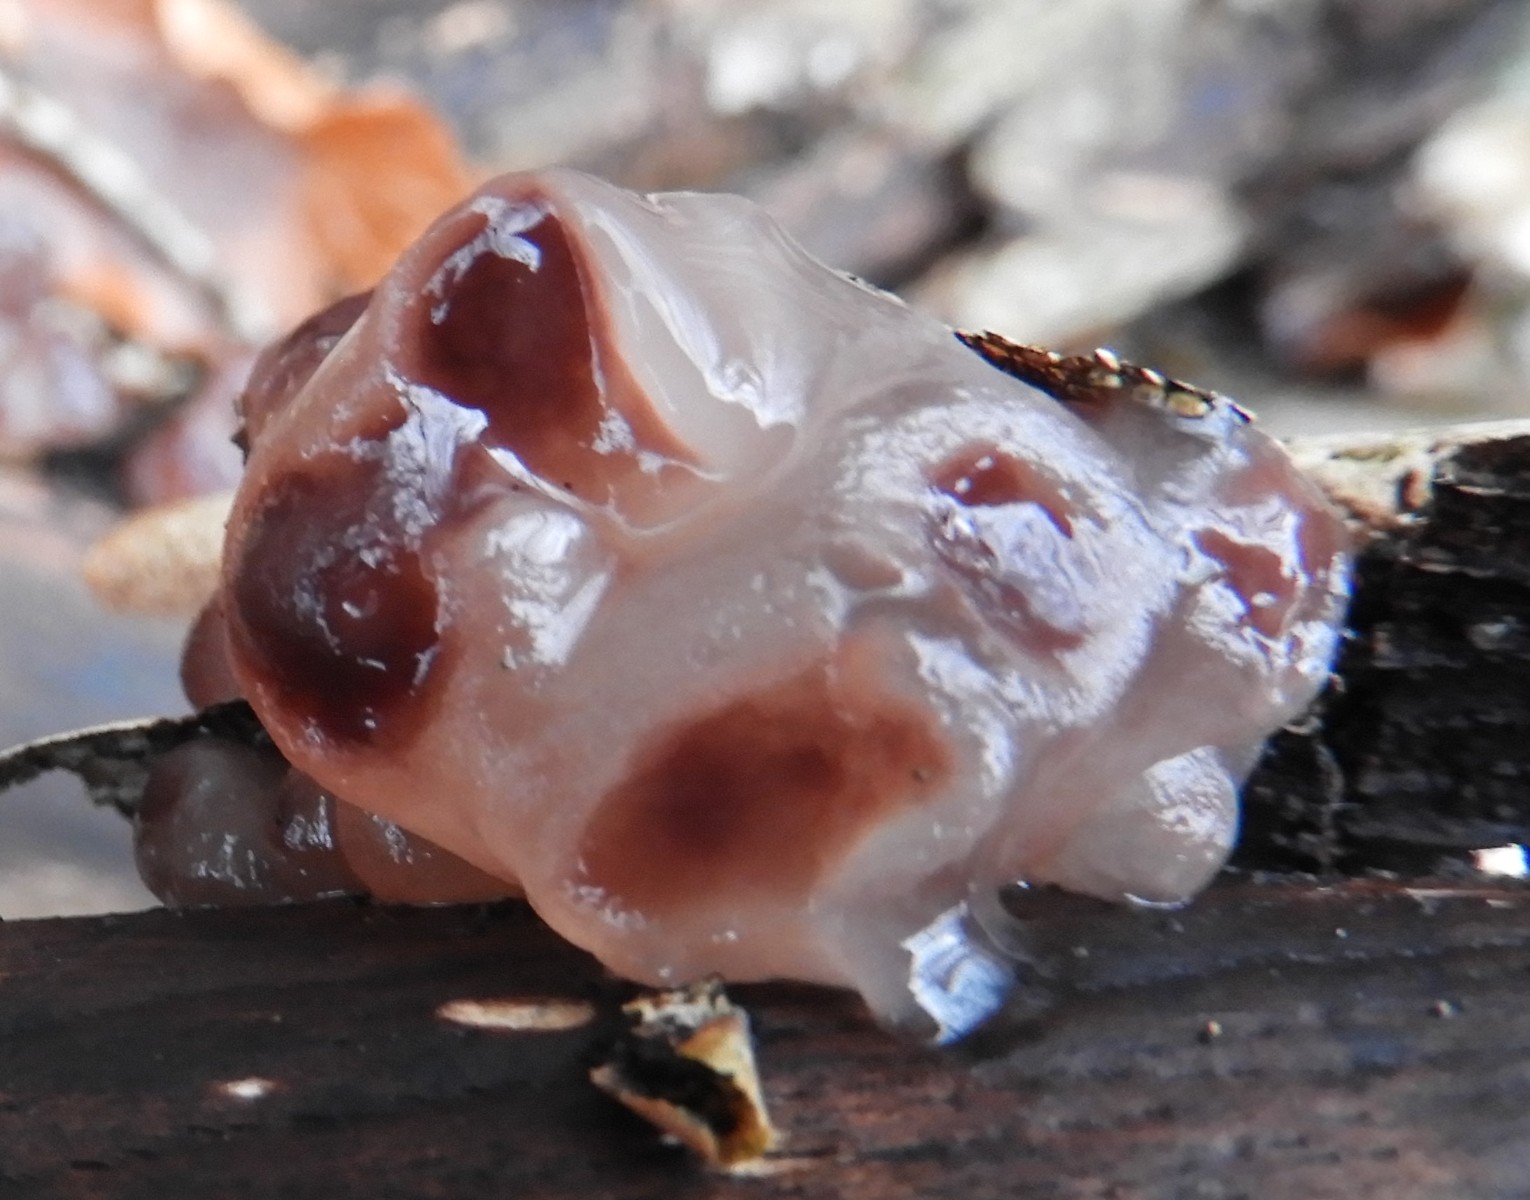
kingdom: Fungi
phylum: Ascomycota
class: Leotiomycetes
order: Helotiales
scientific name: Helotiales
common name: stilkskiveordenen
